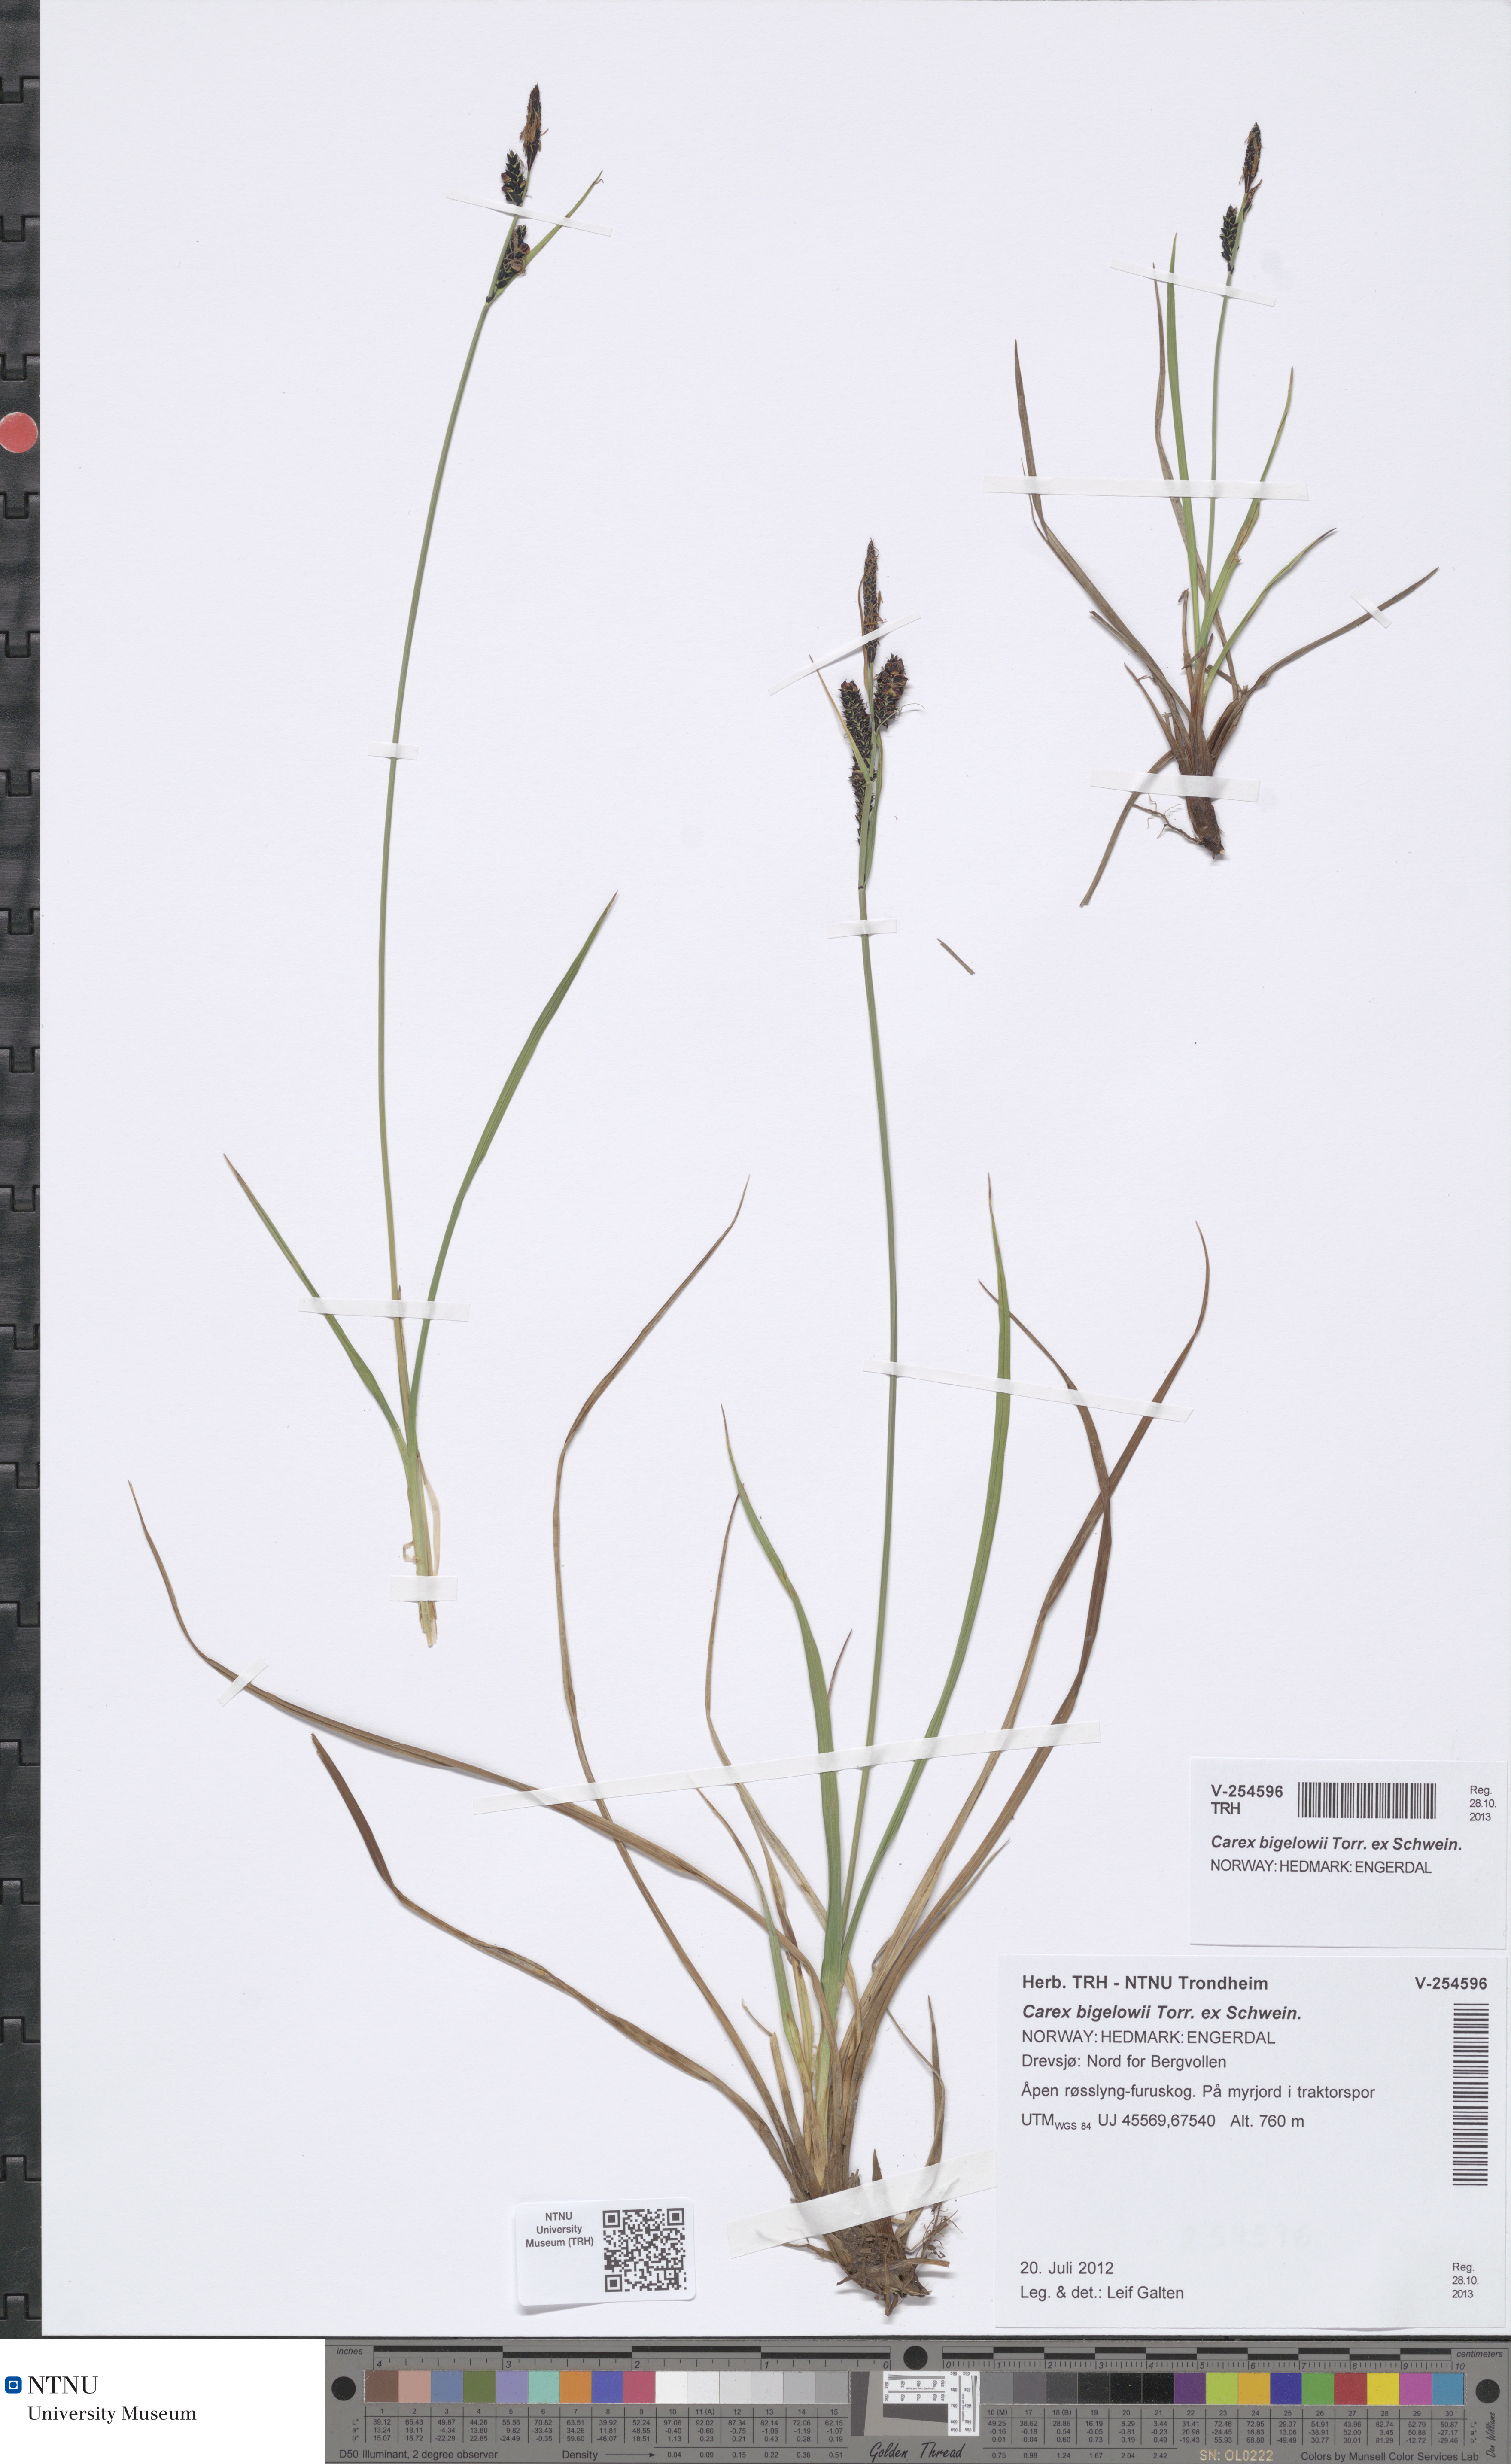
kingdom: Plantae
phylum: Tracheophyta
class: Liliopsida
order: Poales
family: Cyperaceae
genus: Carex
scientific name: Carex bigelowii
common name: Stiff sedge
